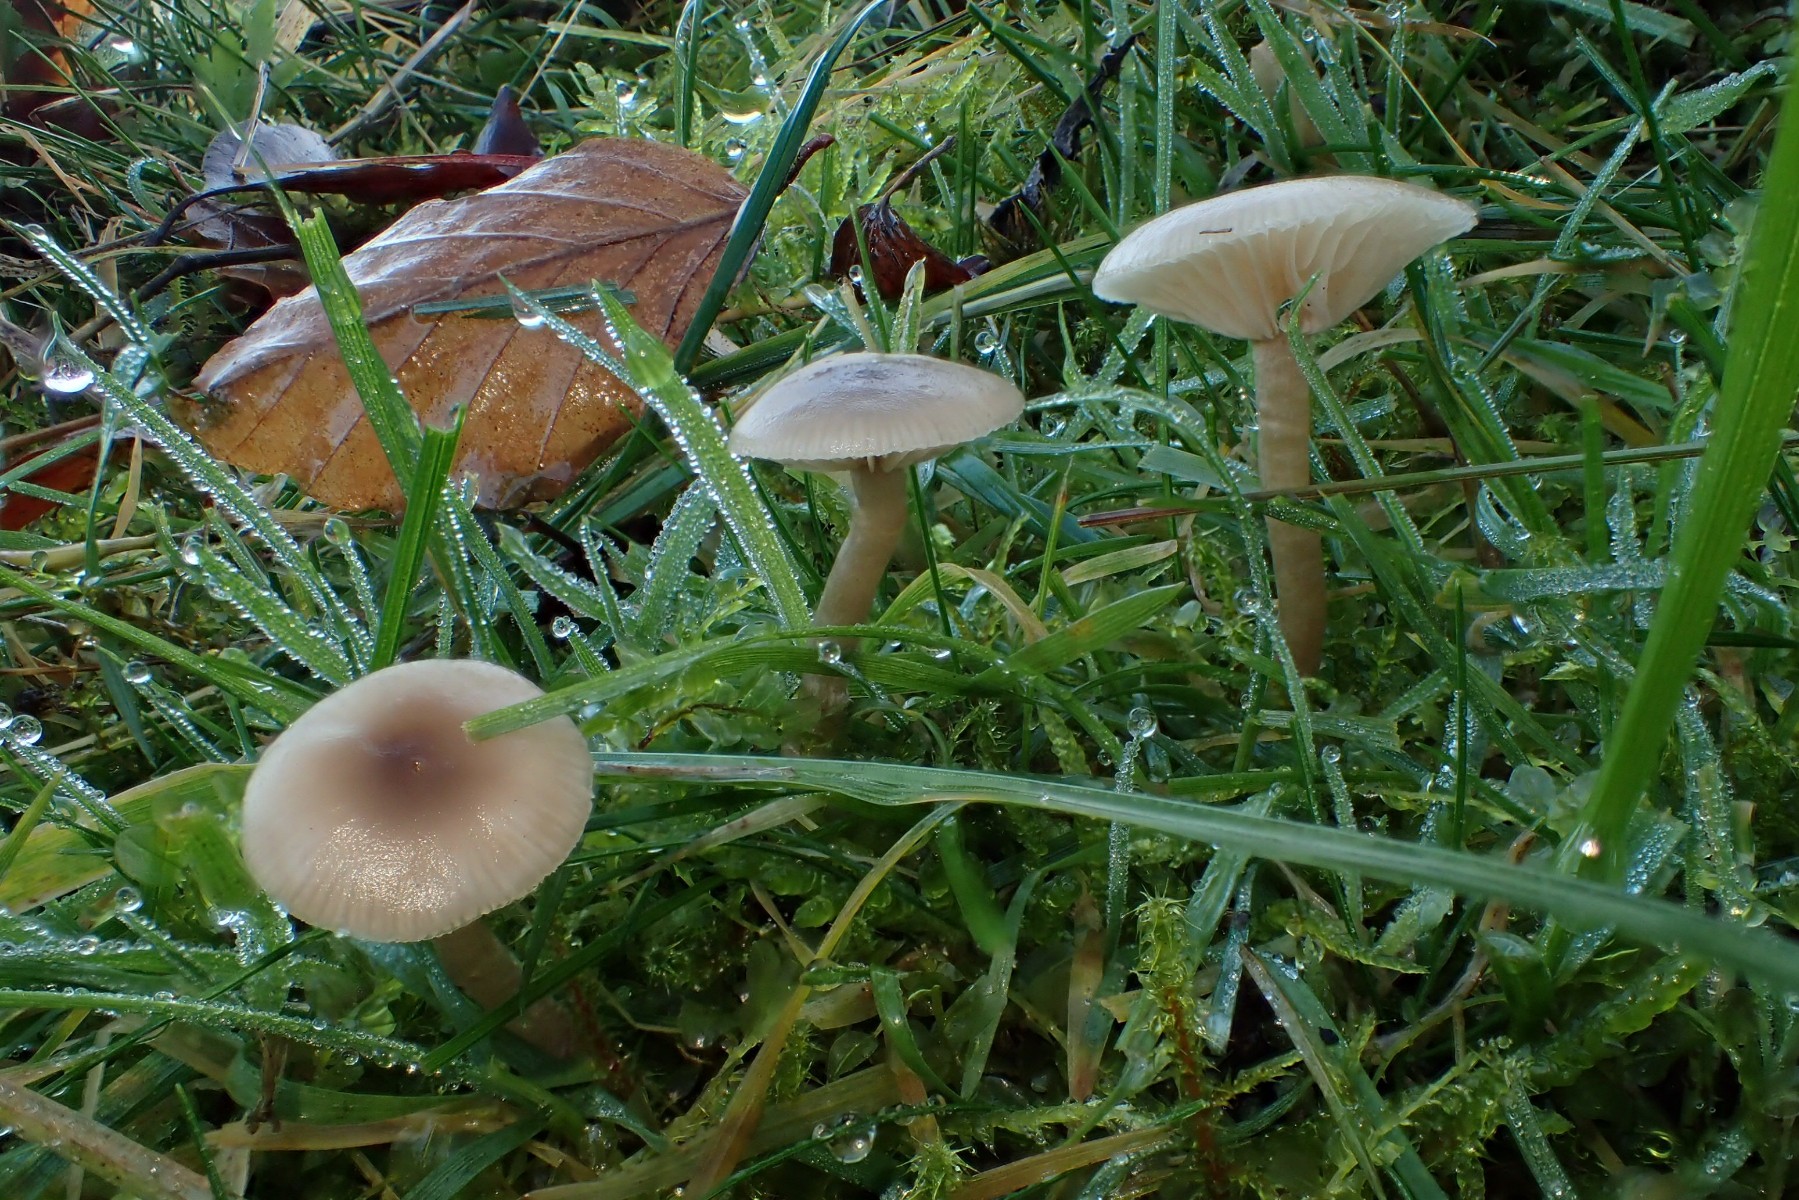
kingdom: Fungi
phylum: Basidiomycota
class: Agaricomycetes
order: Agaricales
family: Tricholomataceae
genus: Clitocybe
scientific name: Clitocybe fragrans
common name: vellugtende tragthat
